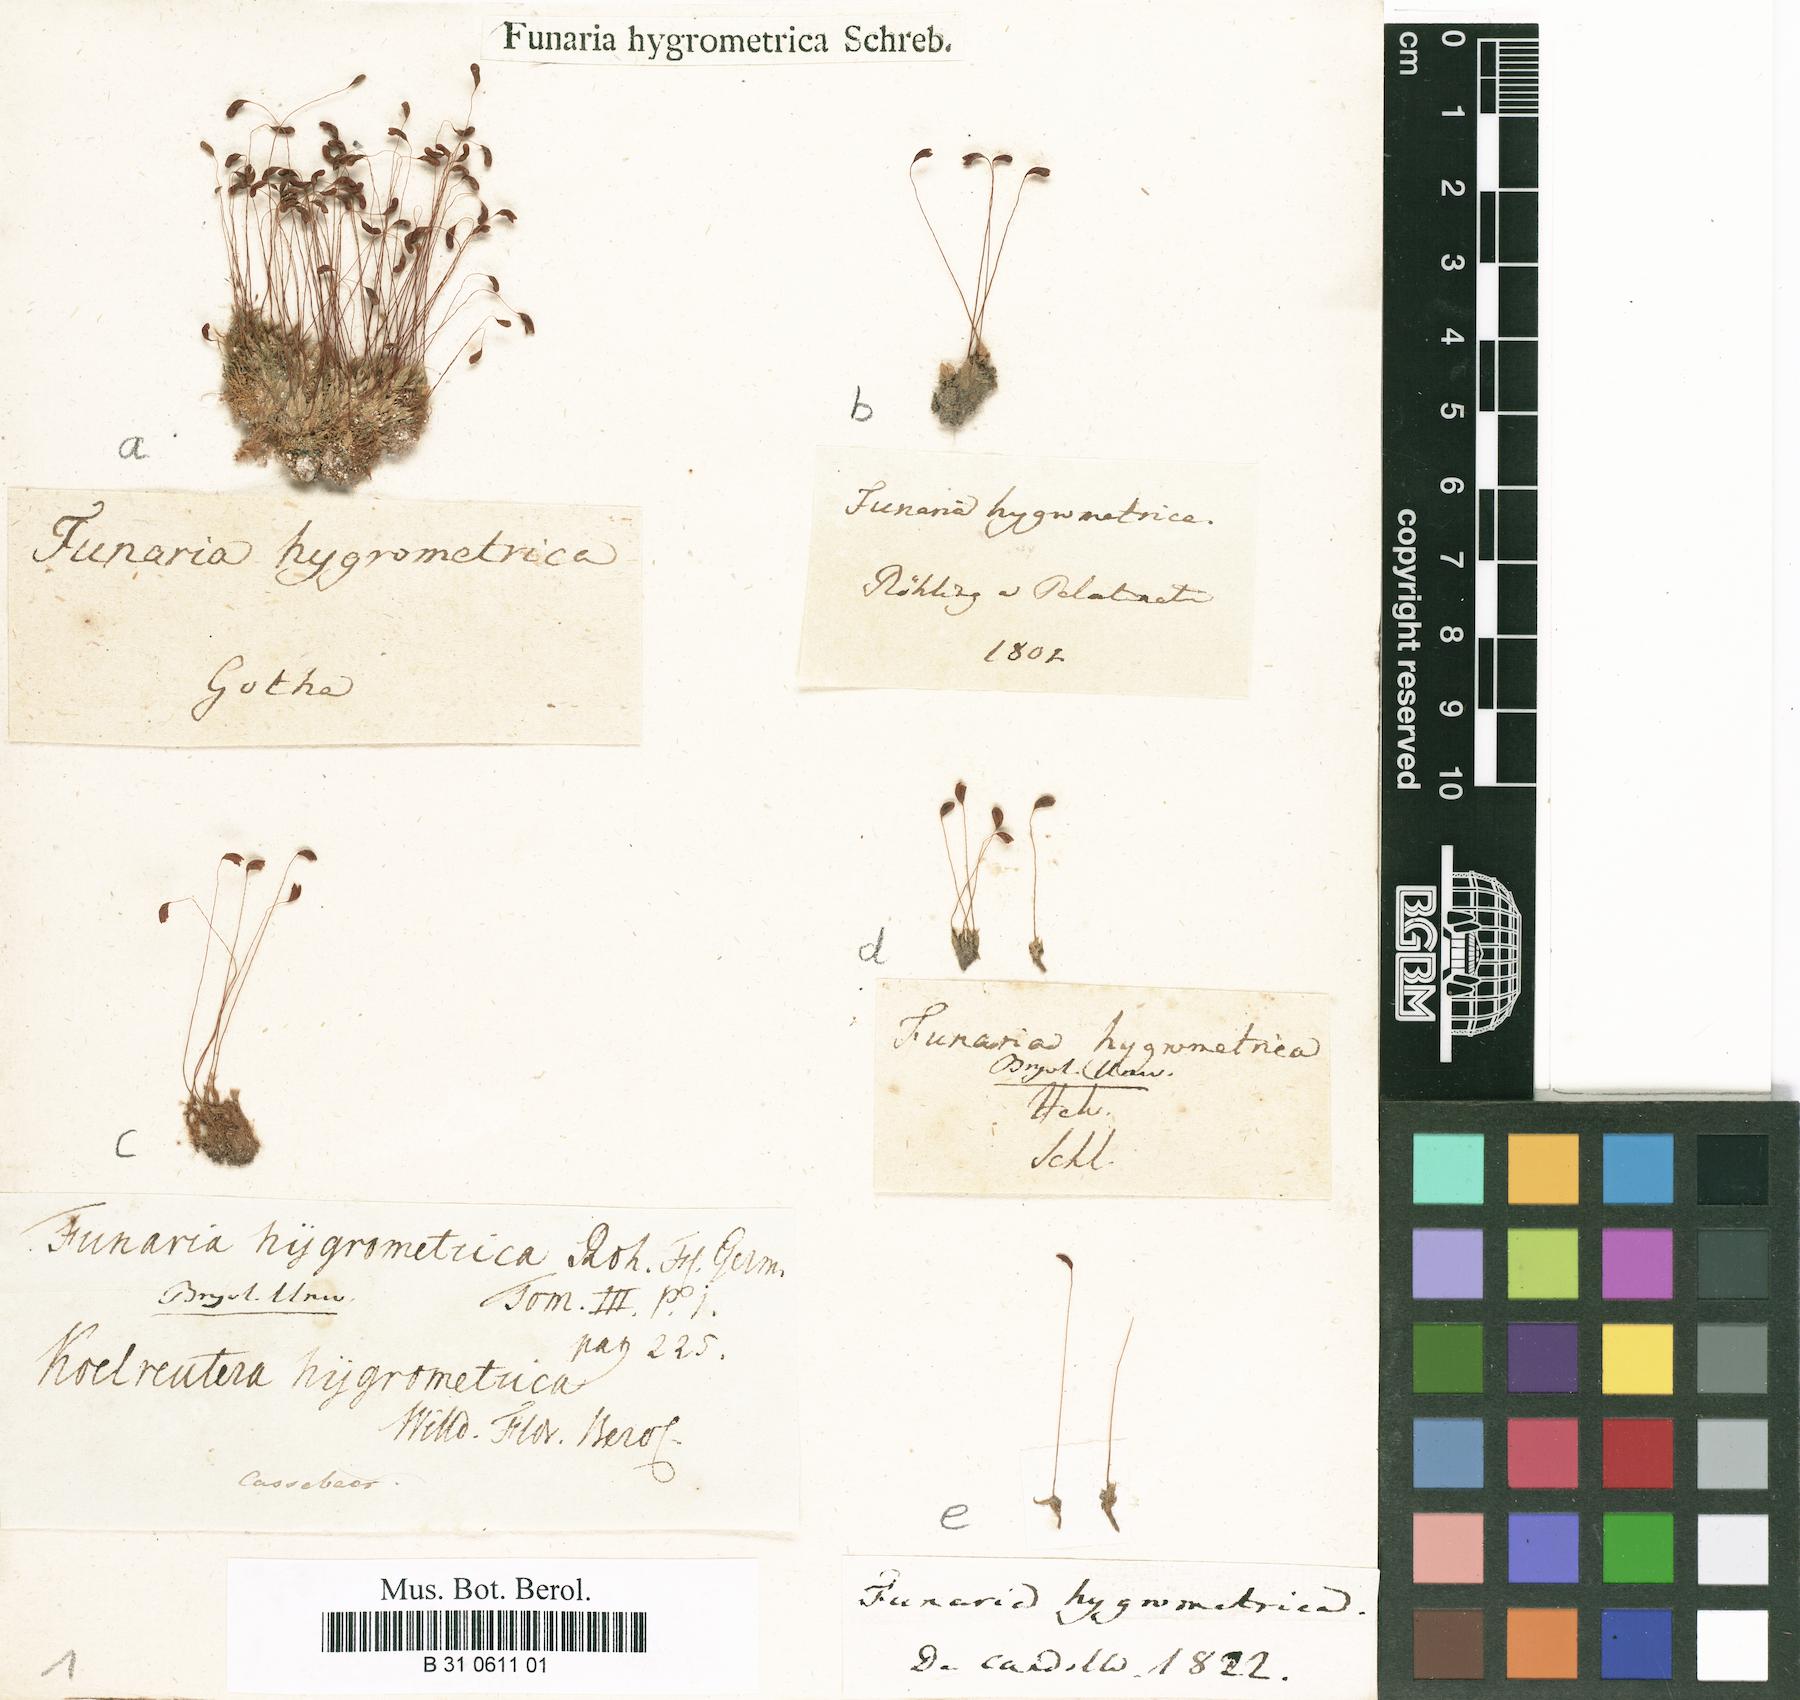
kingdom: Plantae
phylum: Bryophyta
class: Bryopsida
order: Funariales
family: Funariaceae
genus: Funaria
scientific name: Funaria hygrometrica
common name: Common cord moss
